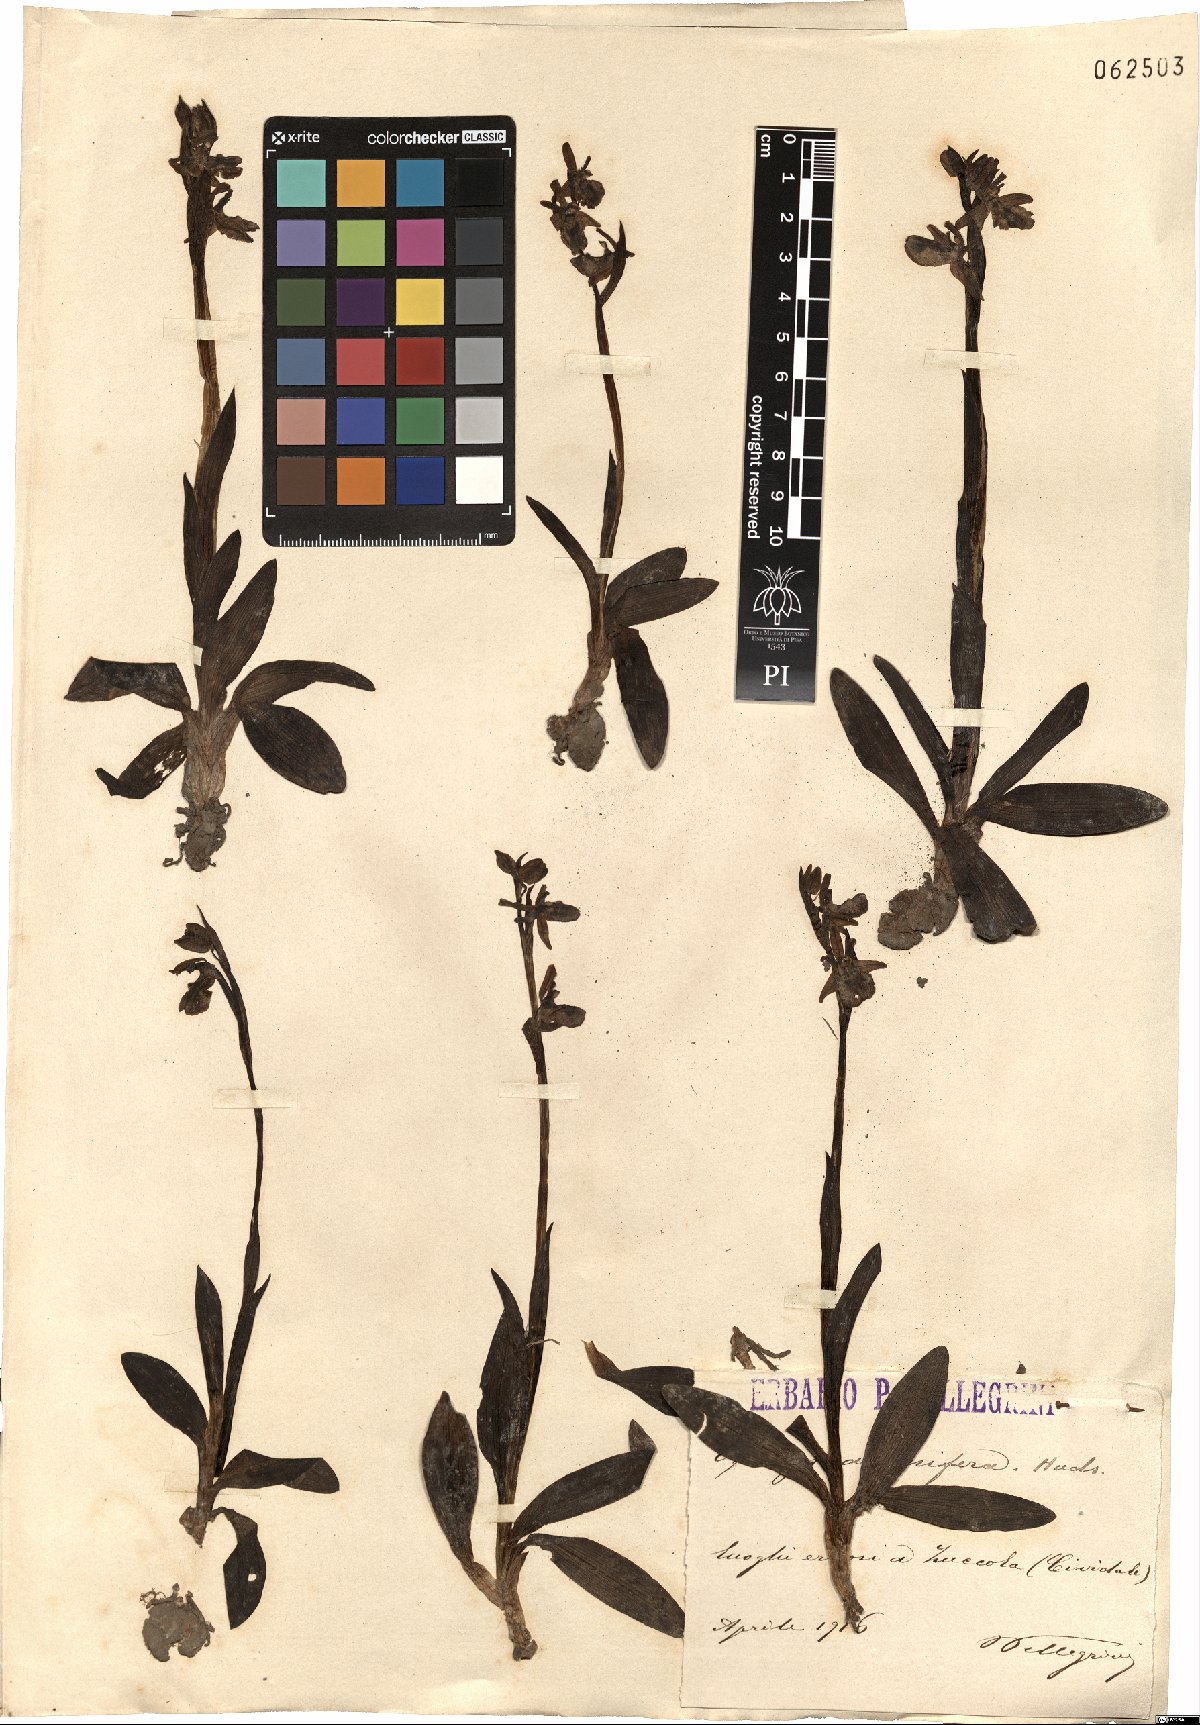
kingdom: Plantae
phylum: Tracheophyta
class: Liliopsida
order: Asparagales
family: Orchidaceae
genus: Ophrys
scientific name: Ophrys sphegodes
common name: Early spider-orchid
